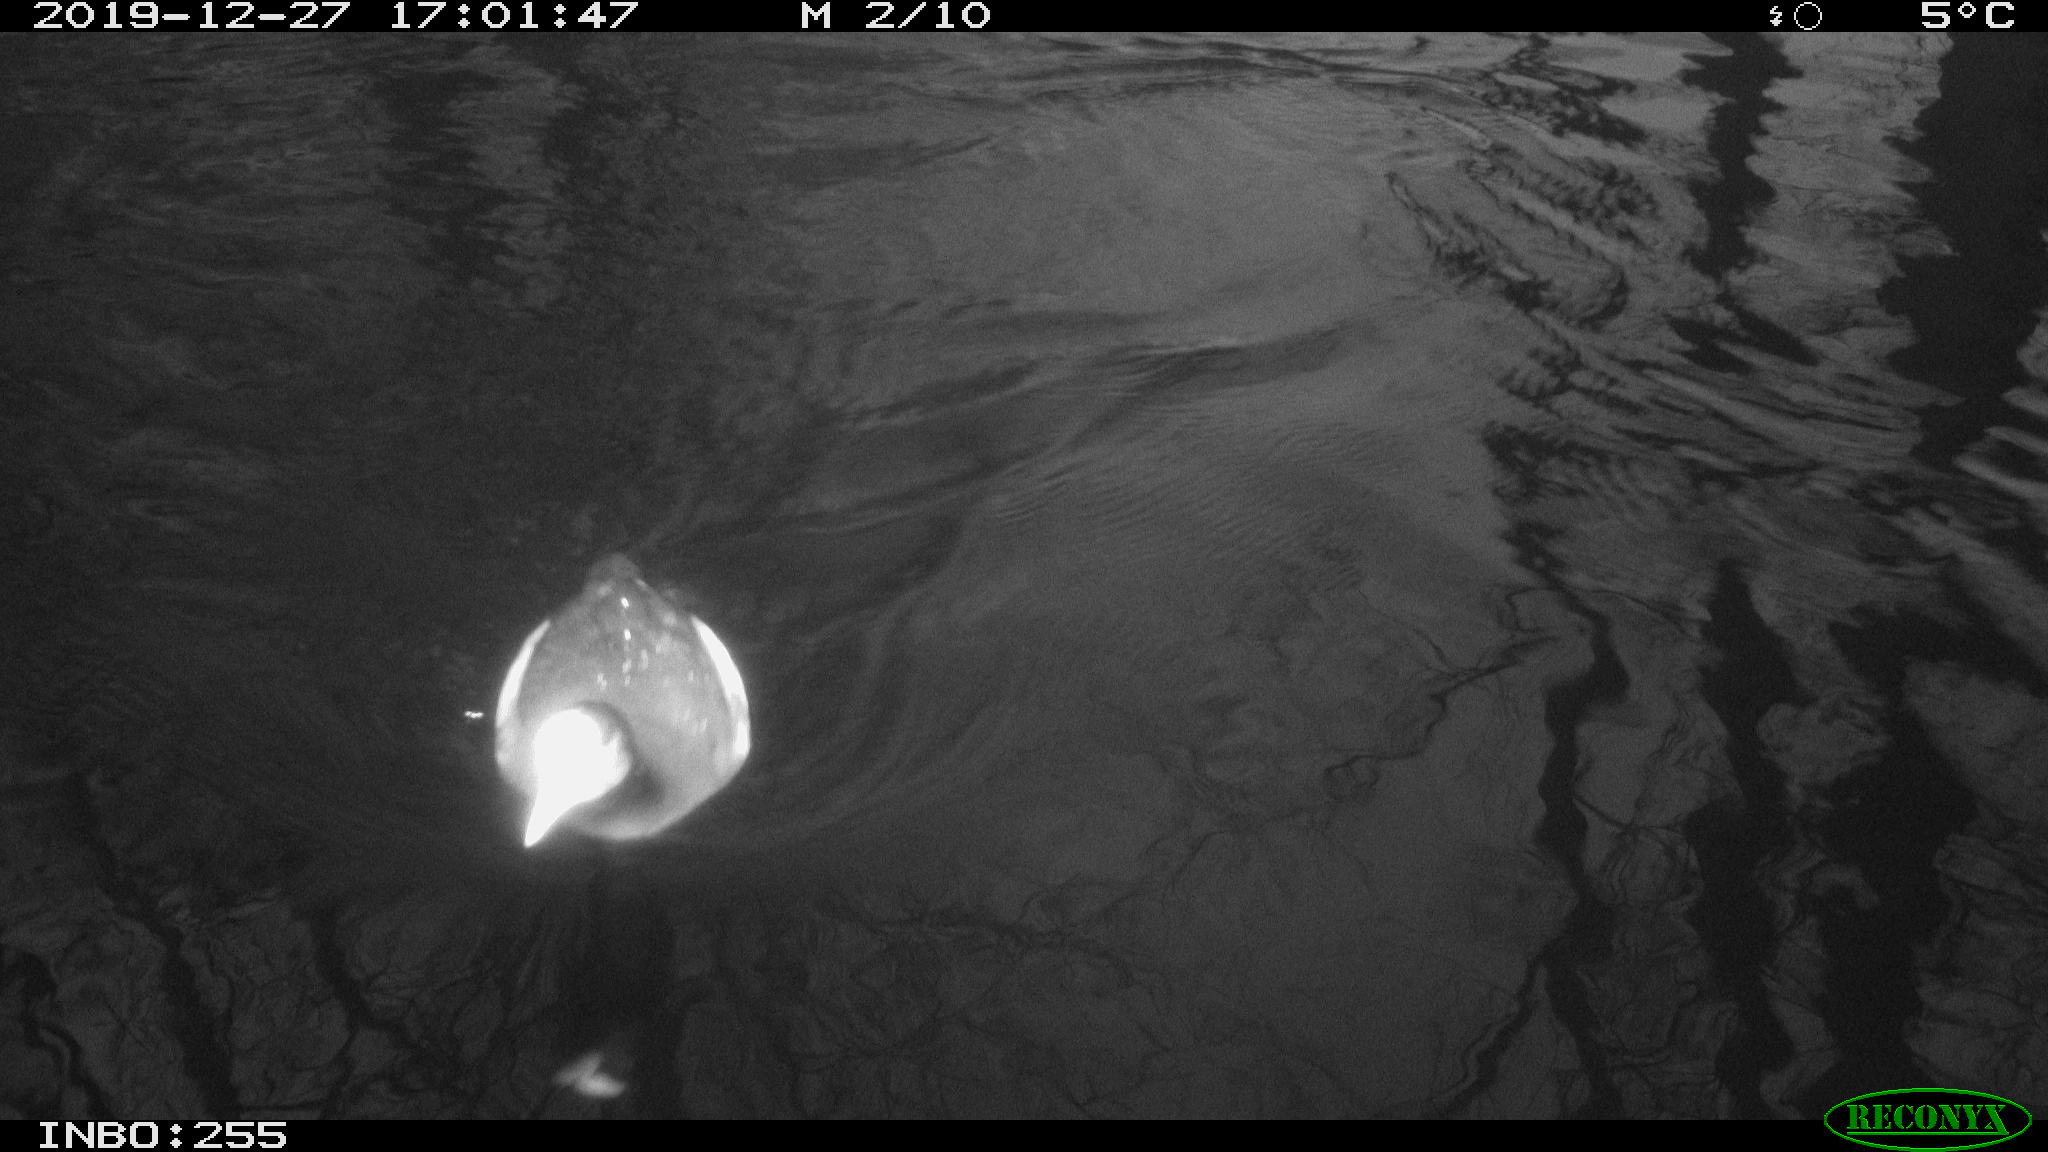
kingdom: Animalia
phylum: Chordata
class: Aves
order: Gruiformes
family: Rallidae
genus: Fulica
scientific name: Fulica atra
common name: Eurasian coot
